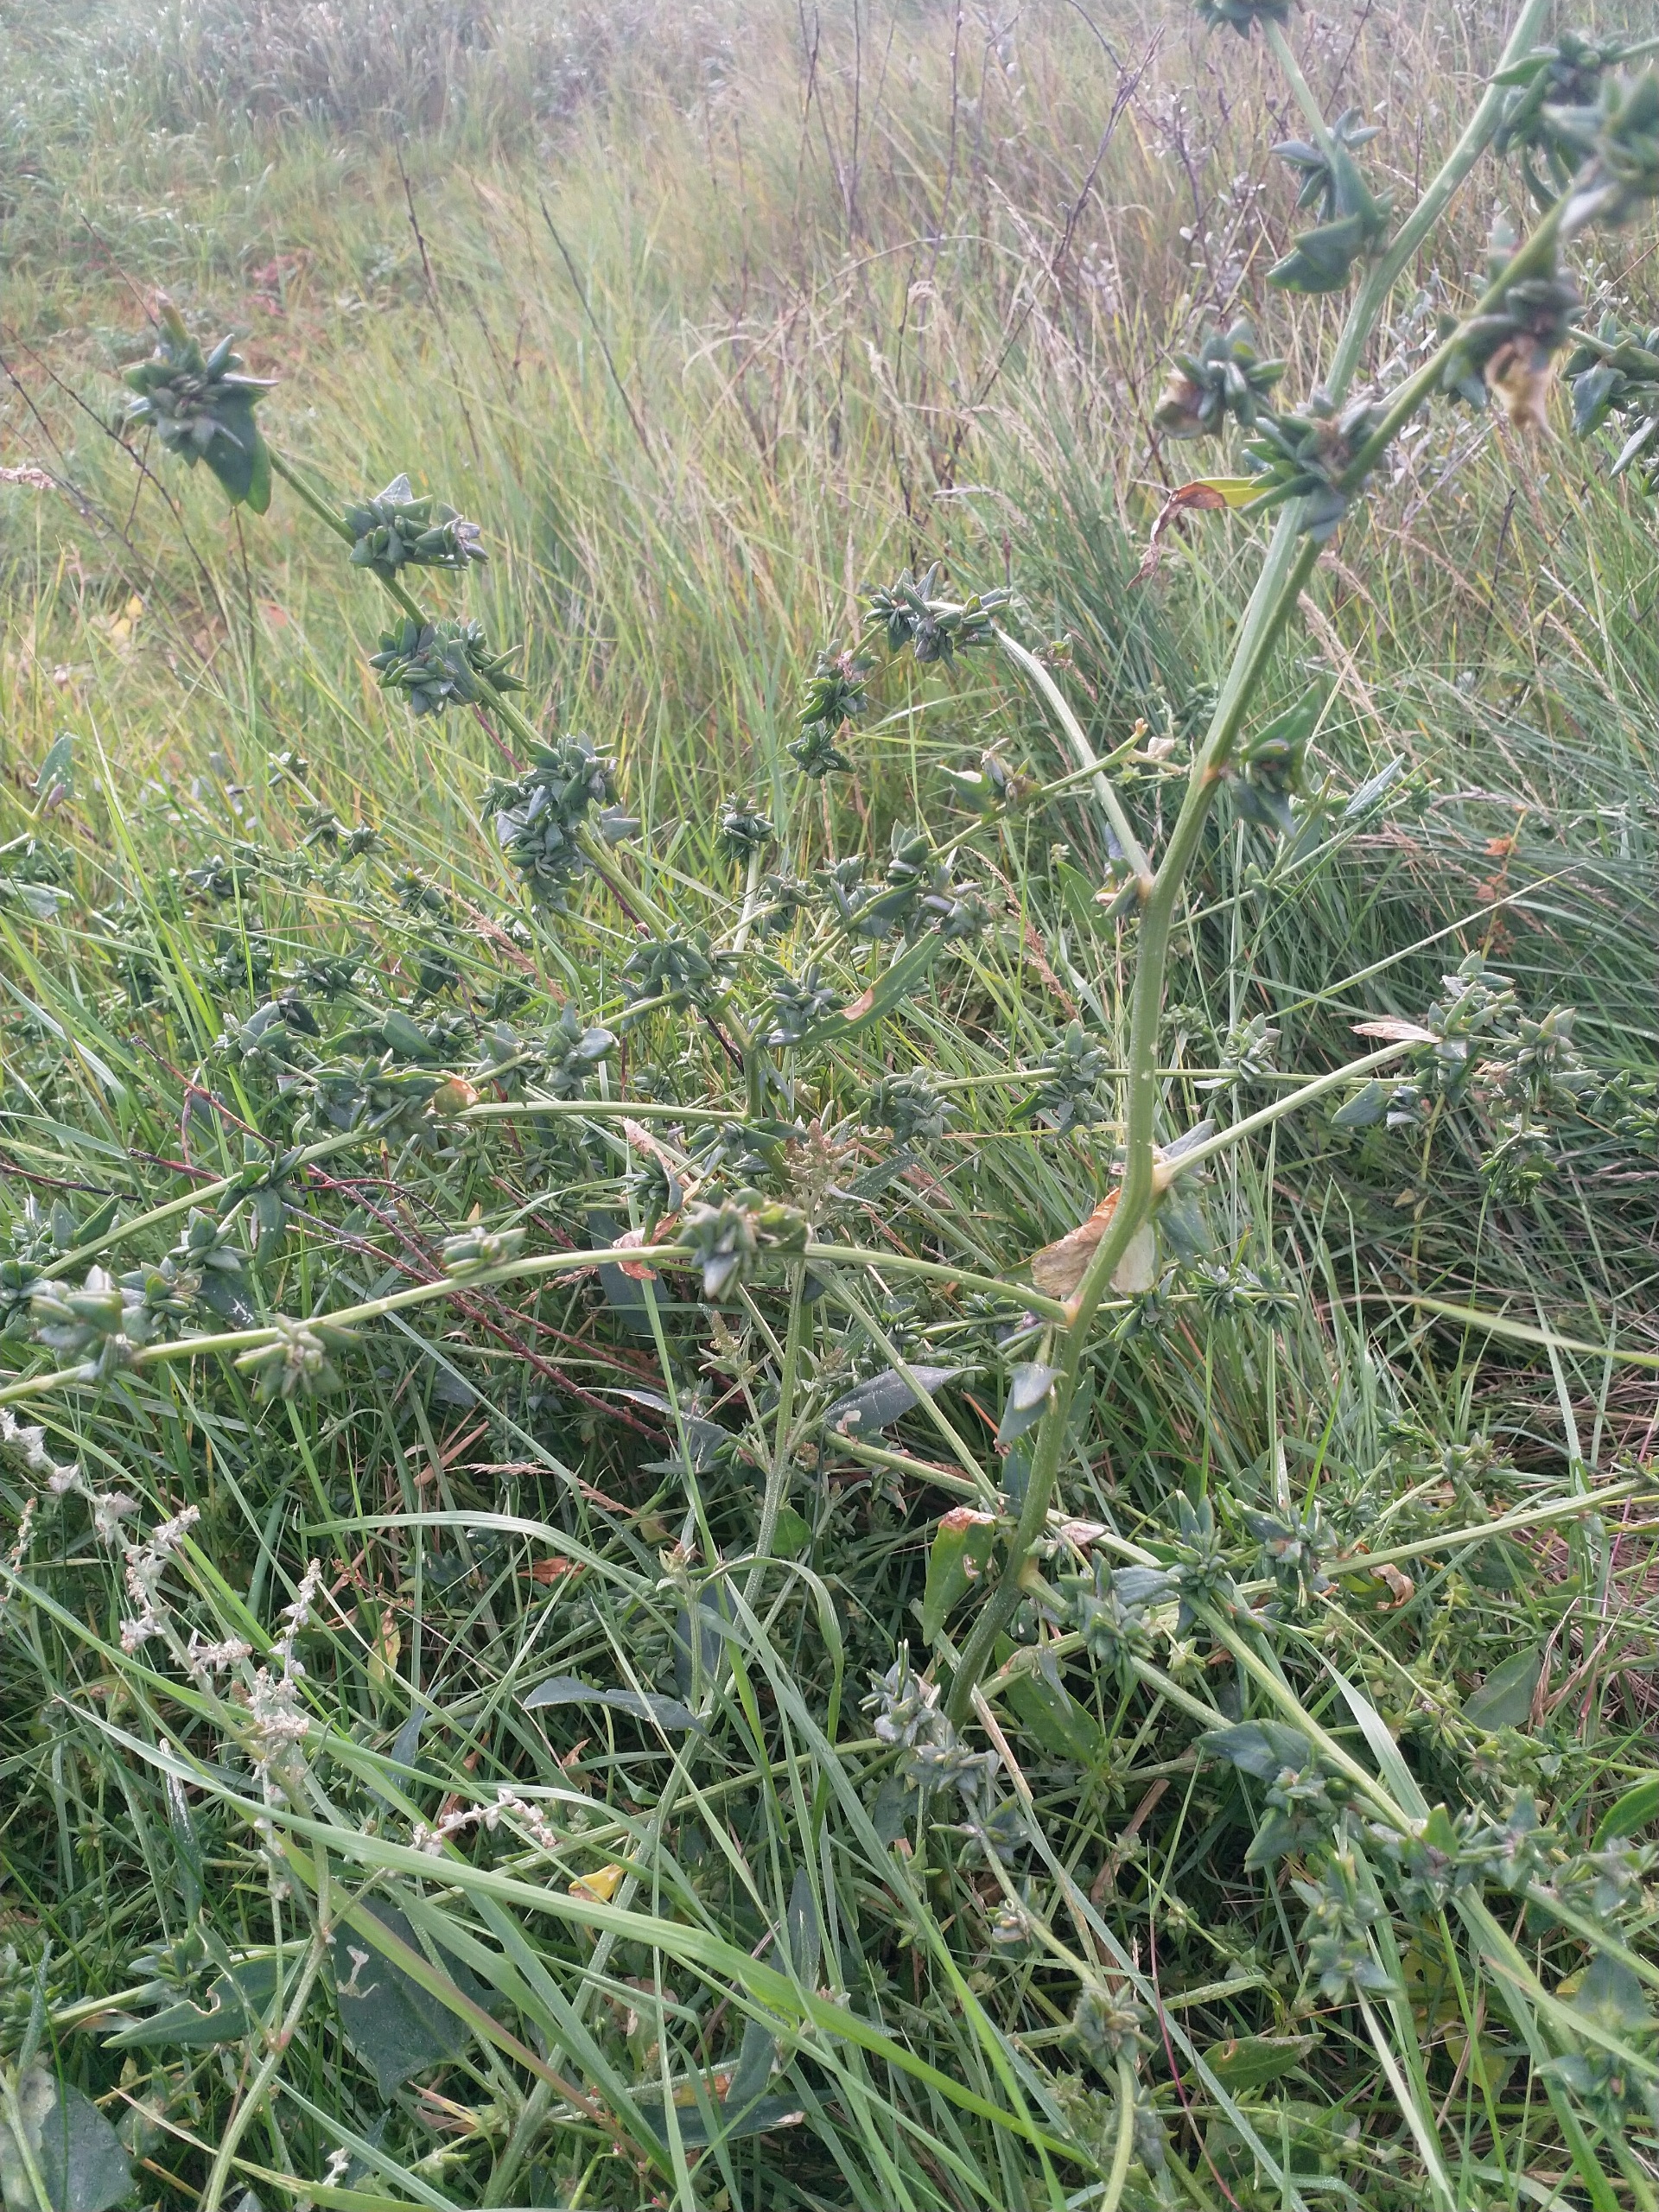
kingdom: Plantae
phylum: Tracheophyta
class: Magnoliopsida
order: Caryophyllales
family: Amaranthaceae
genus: Atriplex
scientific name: Atriplex prostrata
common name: Spyd-mælde
